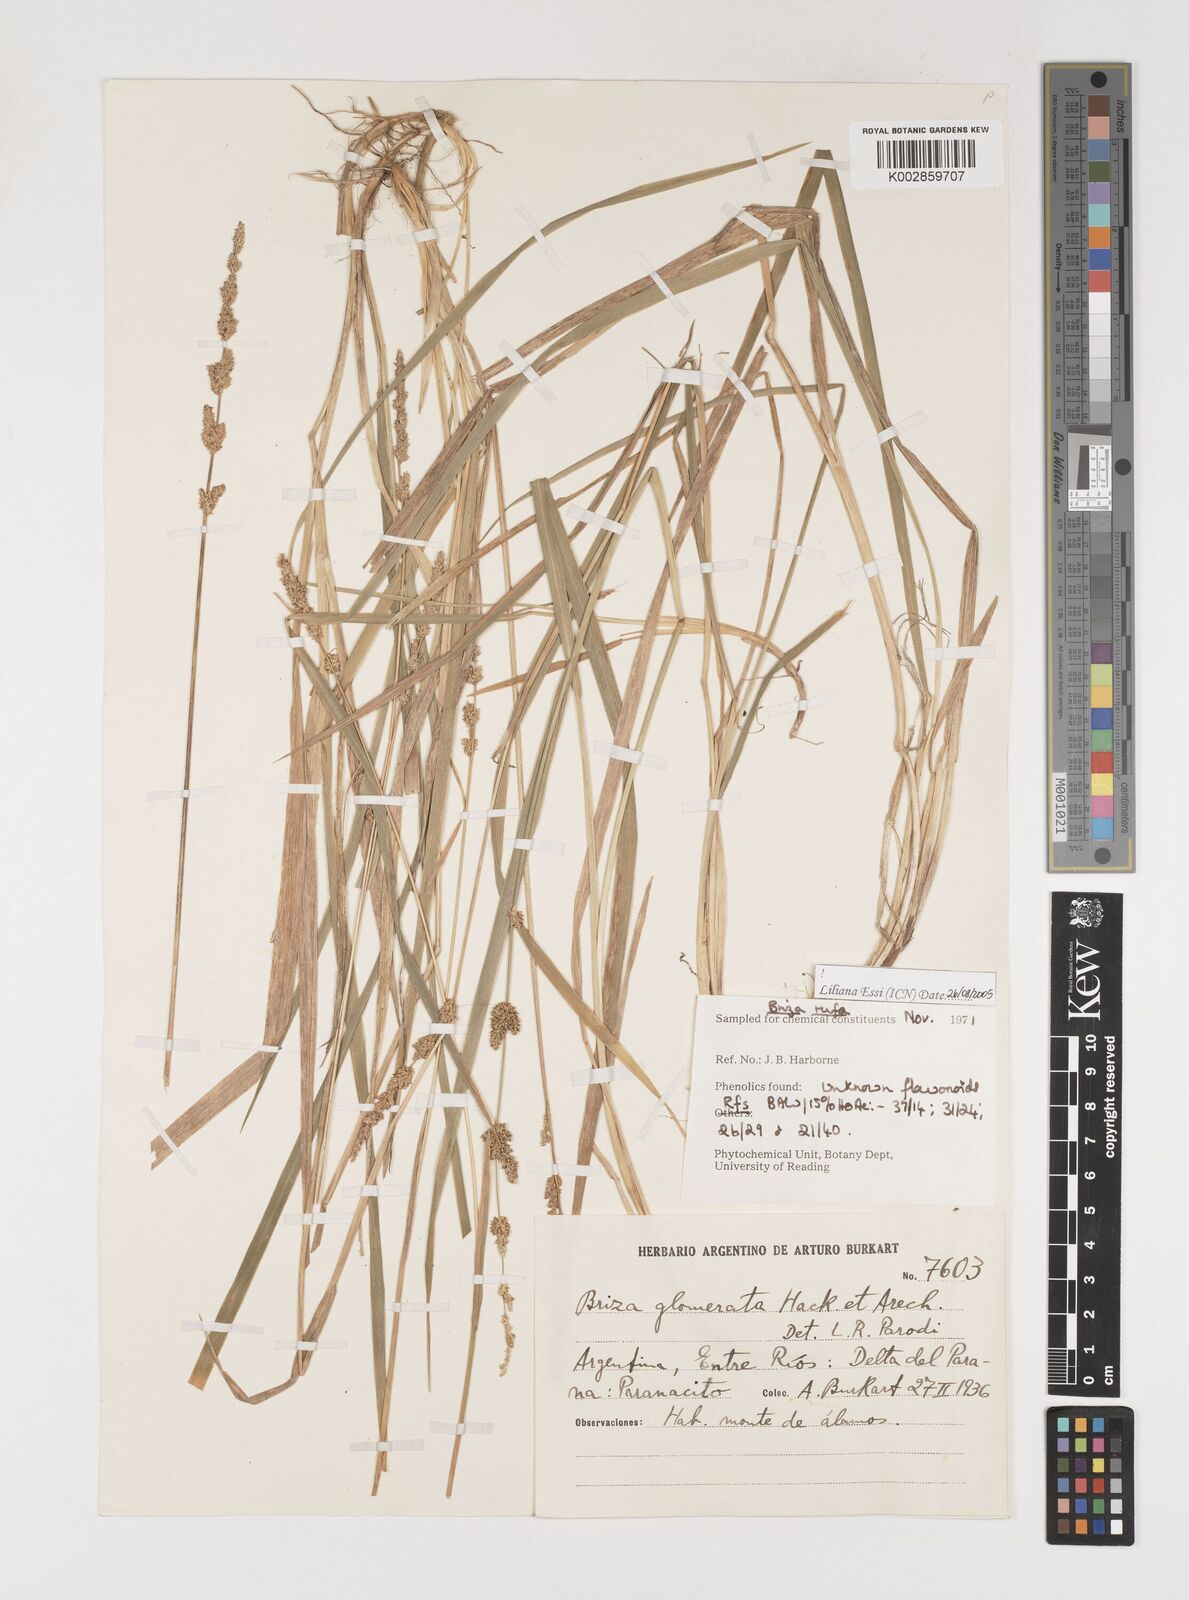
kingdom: Plantae
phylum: Tracheophyta
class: Liliopsida
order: Poales
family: Poaceae
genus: Lombardochloa
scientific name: Lombardochloa rufa
